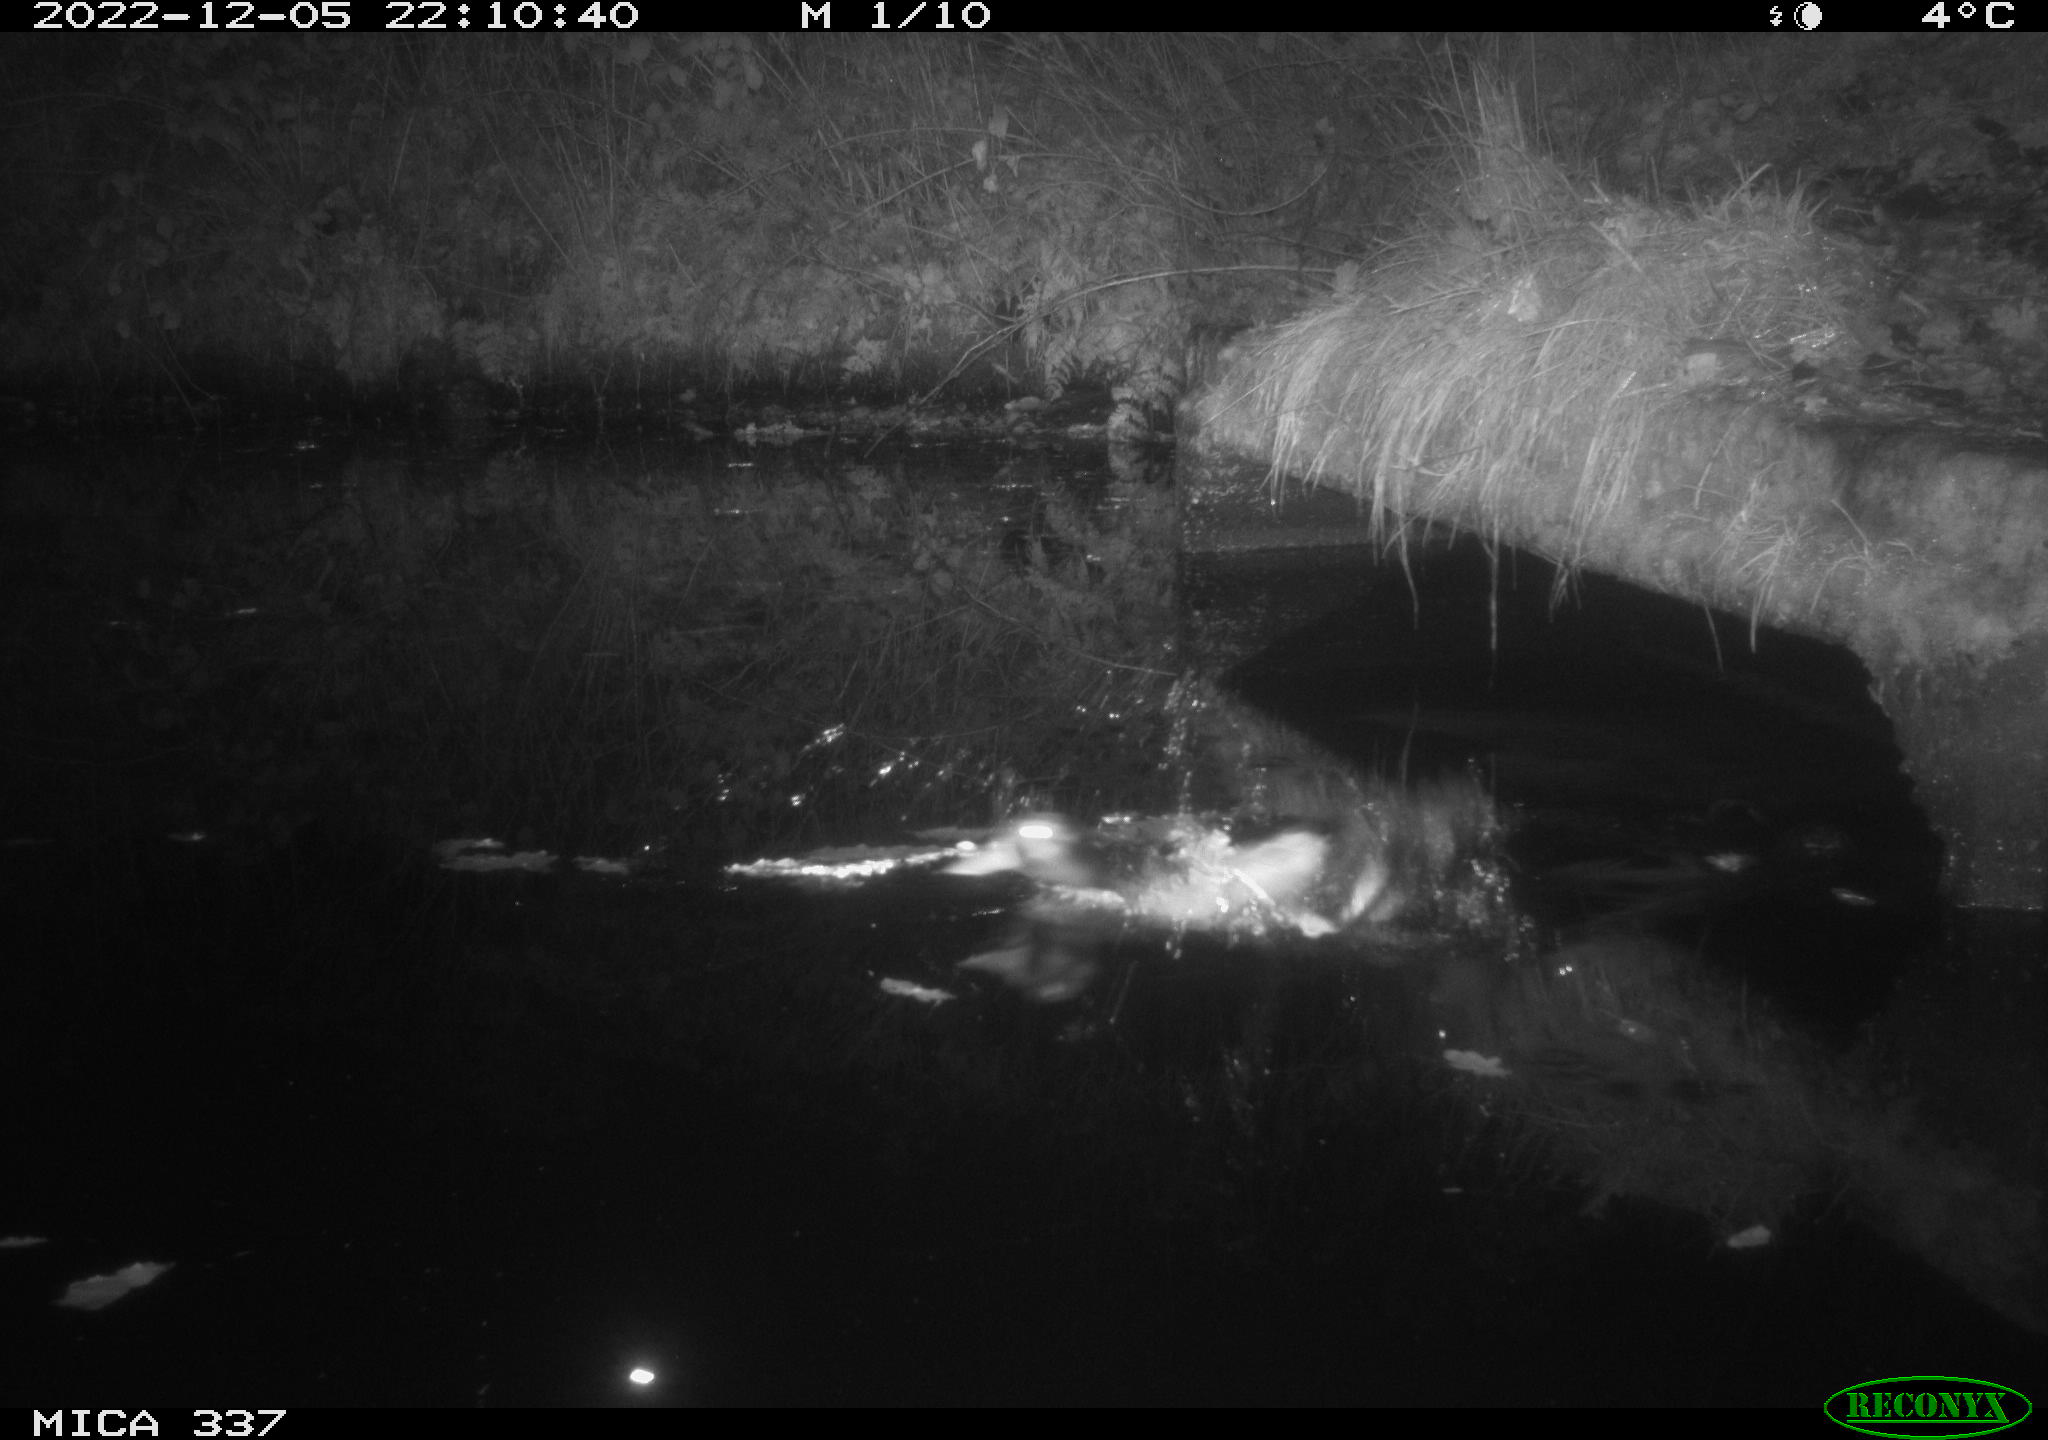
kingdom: Animalia
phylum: Chordata
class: Aves
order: Anseriformes
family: Anatidae
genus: Anas
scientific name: Anas
